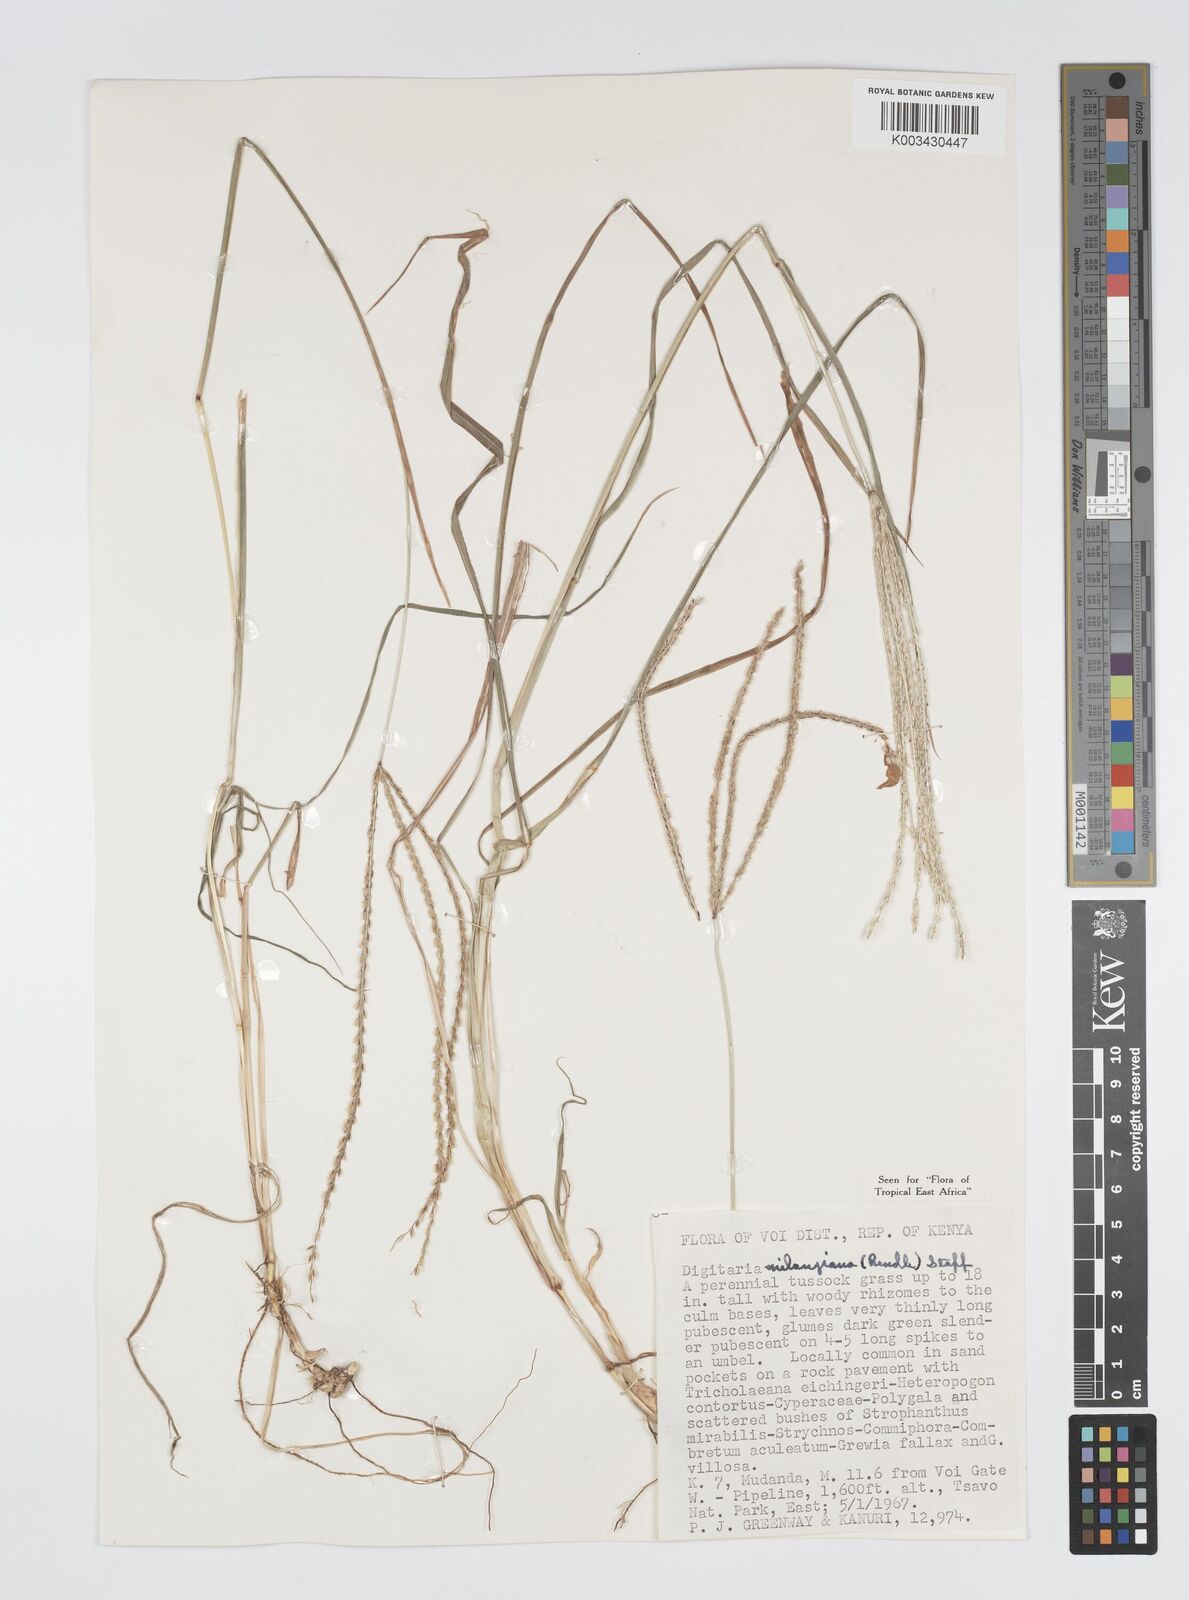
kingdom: Plantae
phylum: Tracheophyta
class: Liliopsida
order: Poales
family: Poaceae
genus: Digitaria
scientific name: Digitaria milanjiana
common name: Madagascar crabgrass
